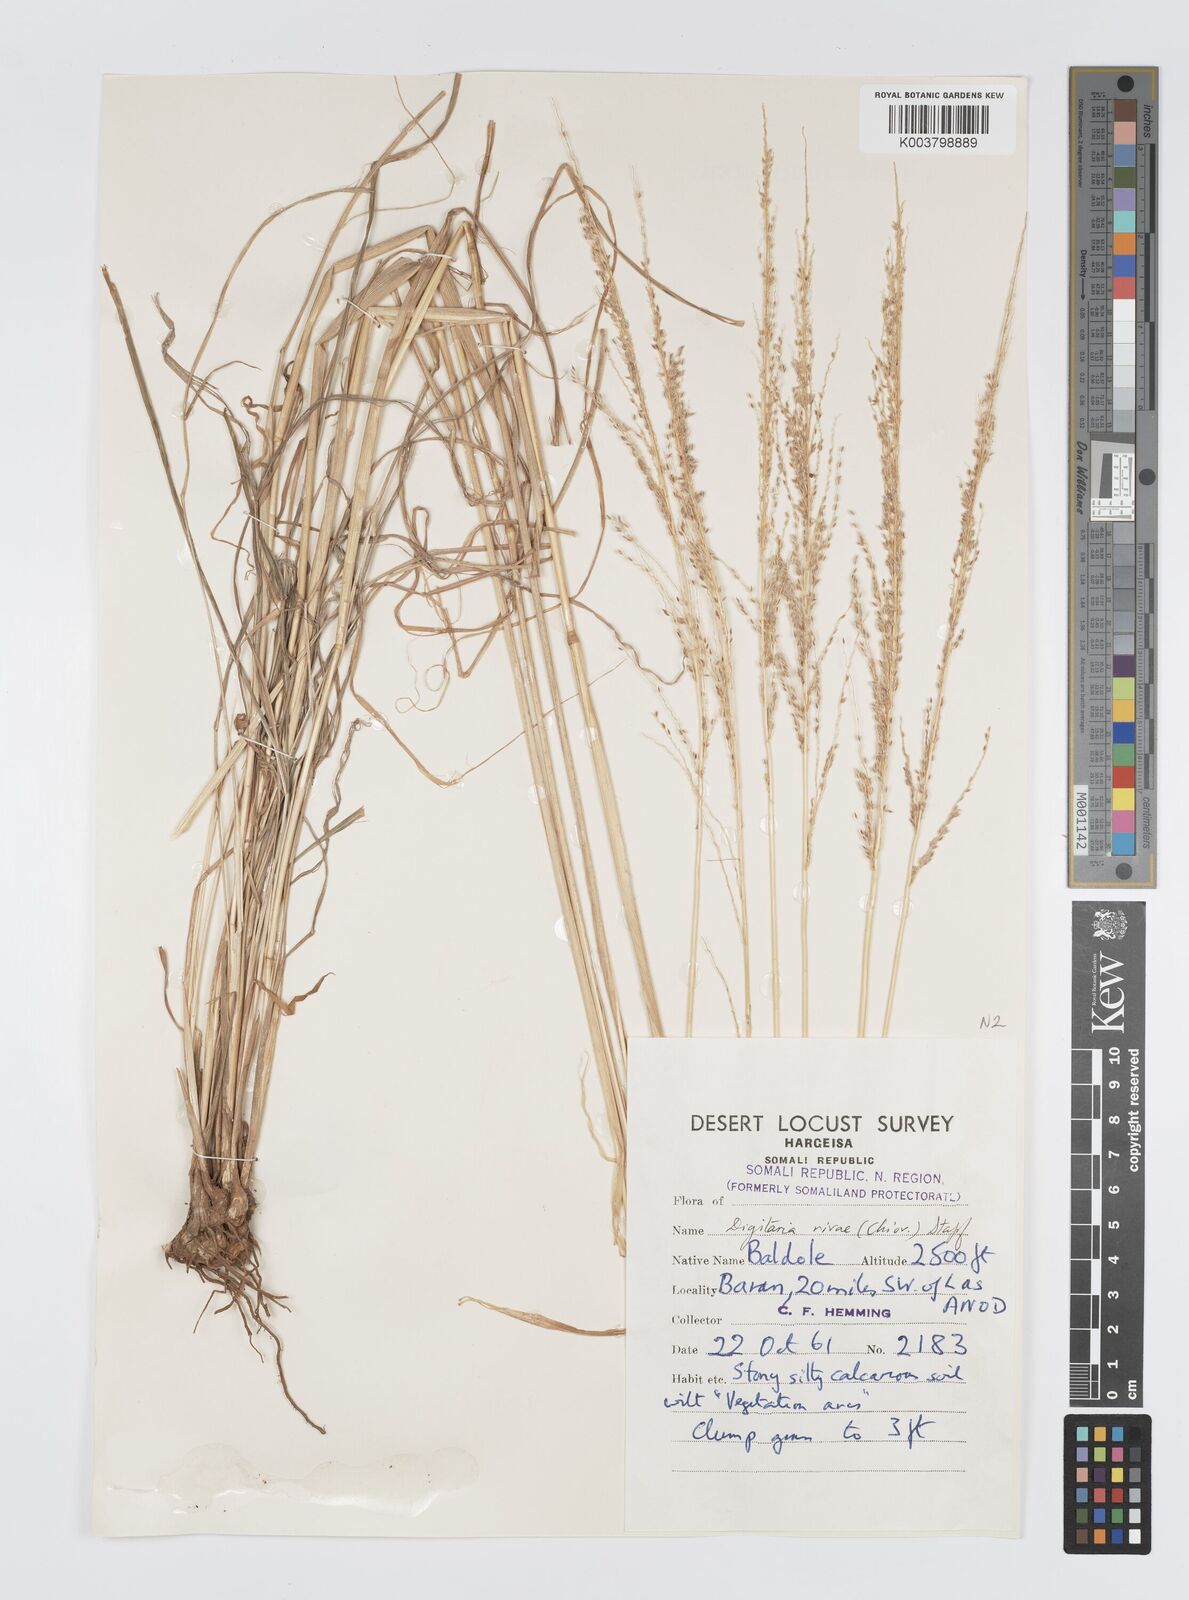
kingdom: Plantae
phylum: Tracheophyta
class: Liliopsida
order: Poales
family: Poaceae
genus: Digitaria
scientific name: Digitaria rivae
